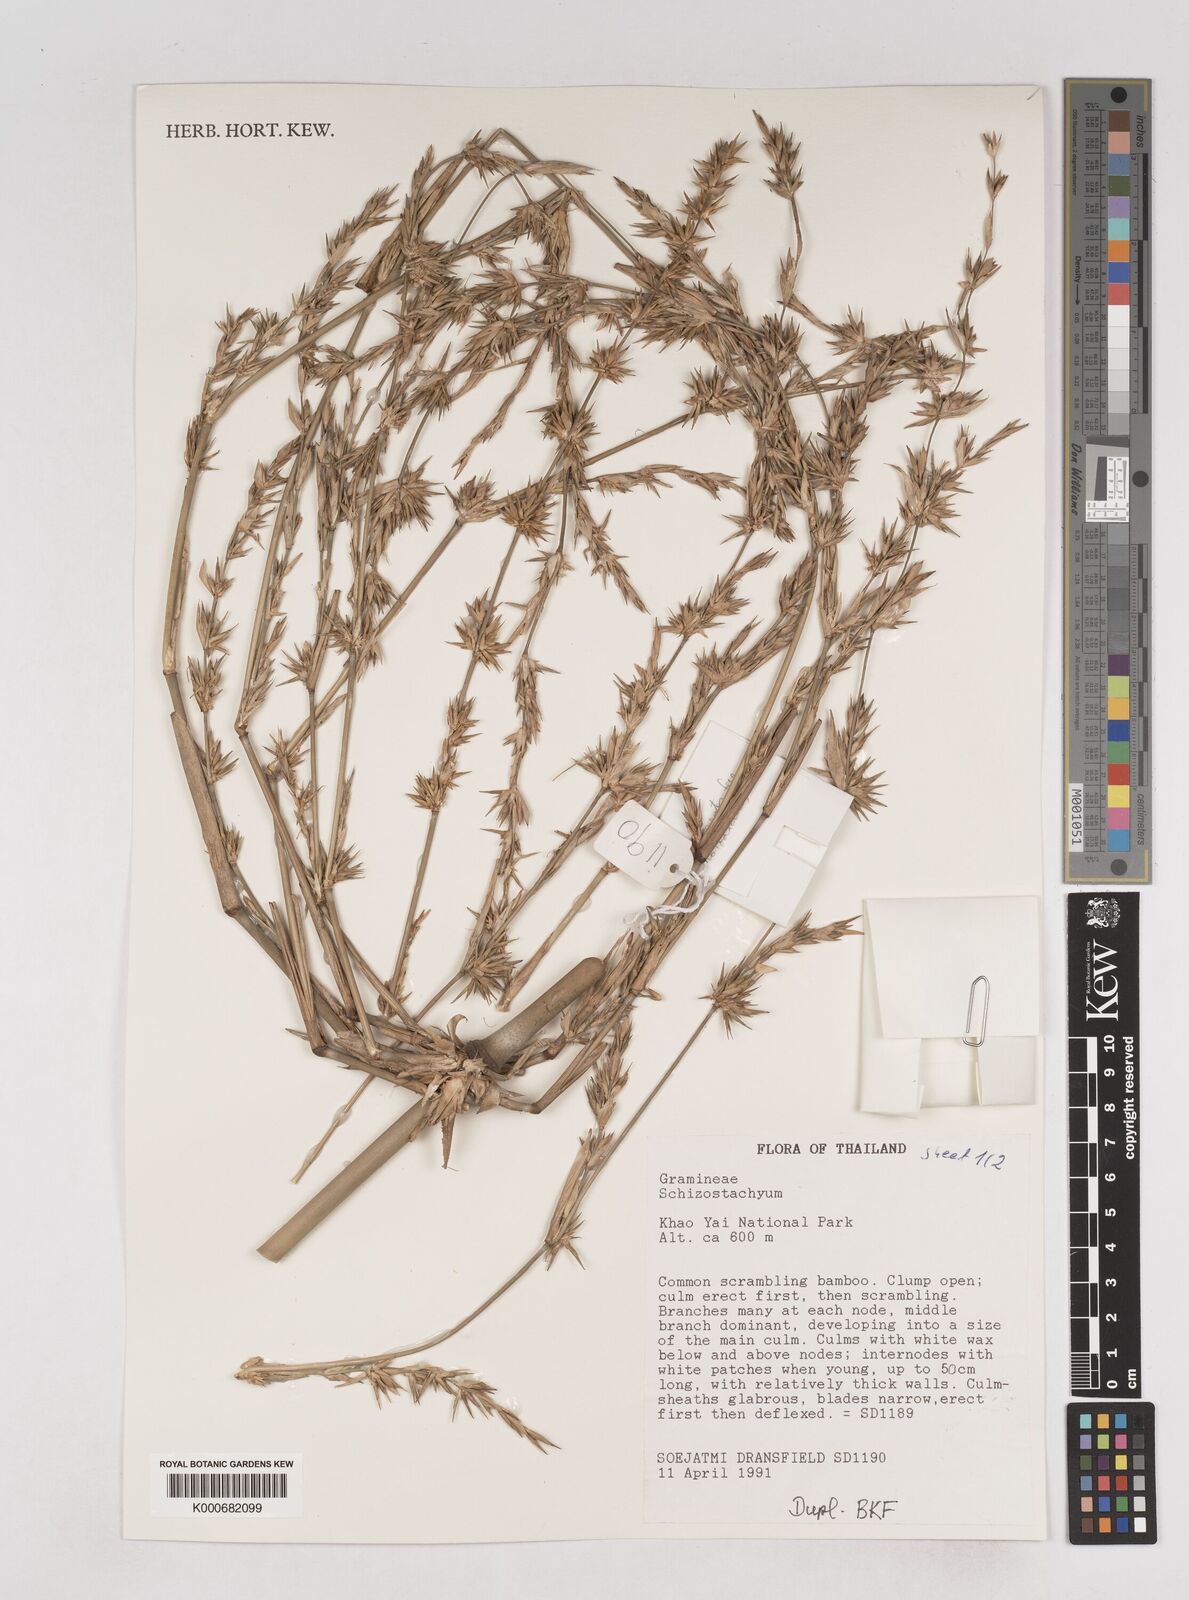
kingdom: Plantae
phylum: Tracheophyta
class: Liliopsida
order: Poales
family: Poaceae
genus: Schizostachyum
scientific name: Schizostachyum
